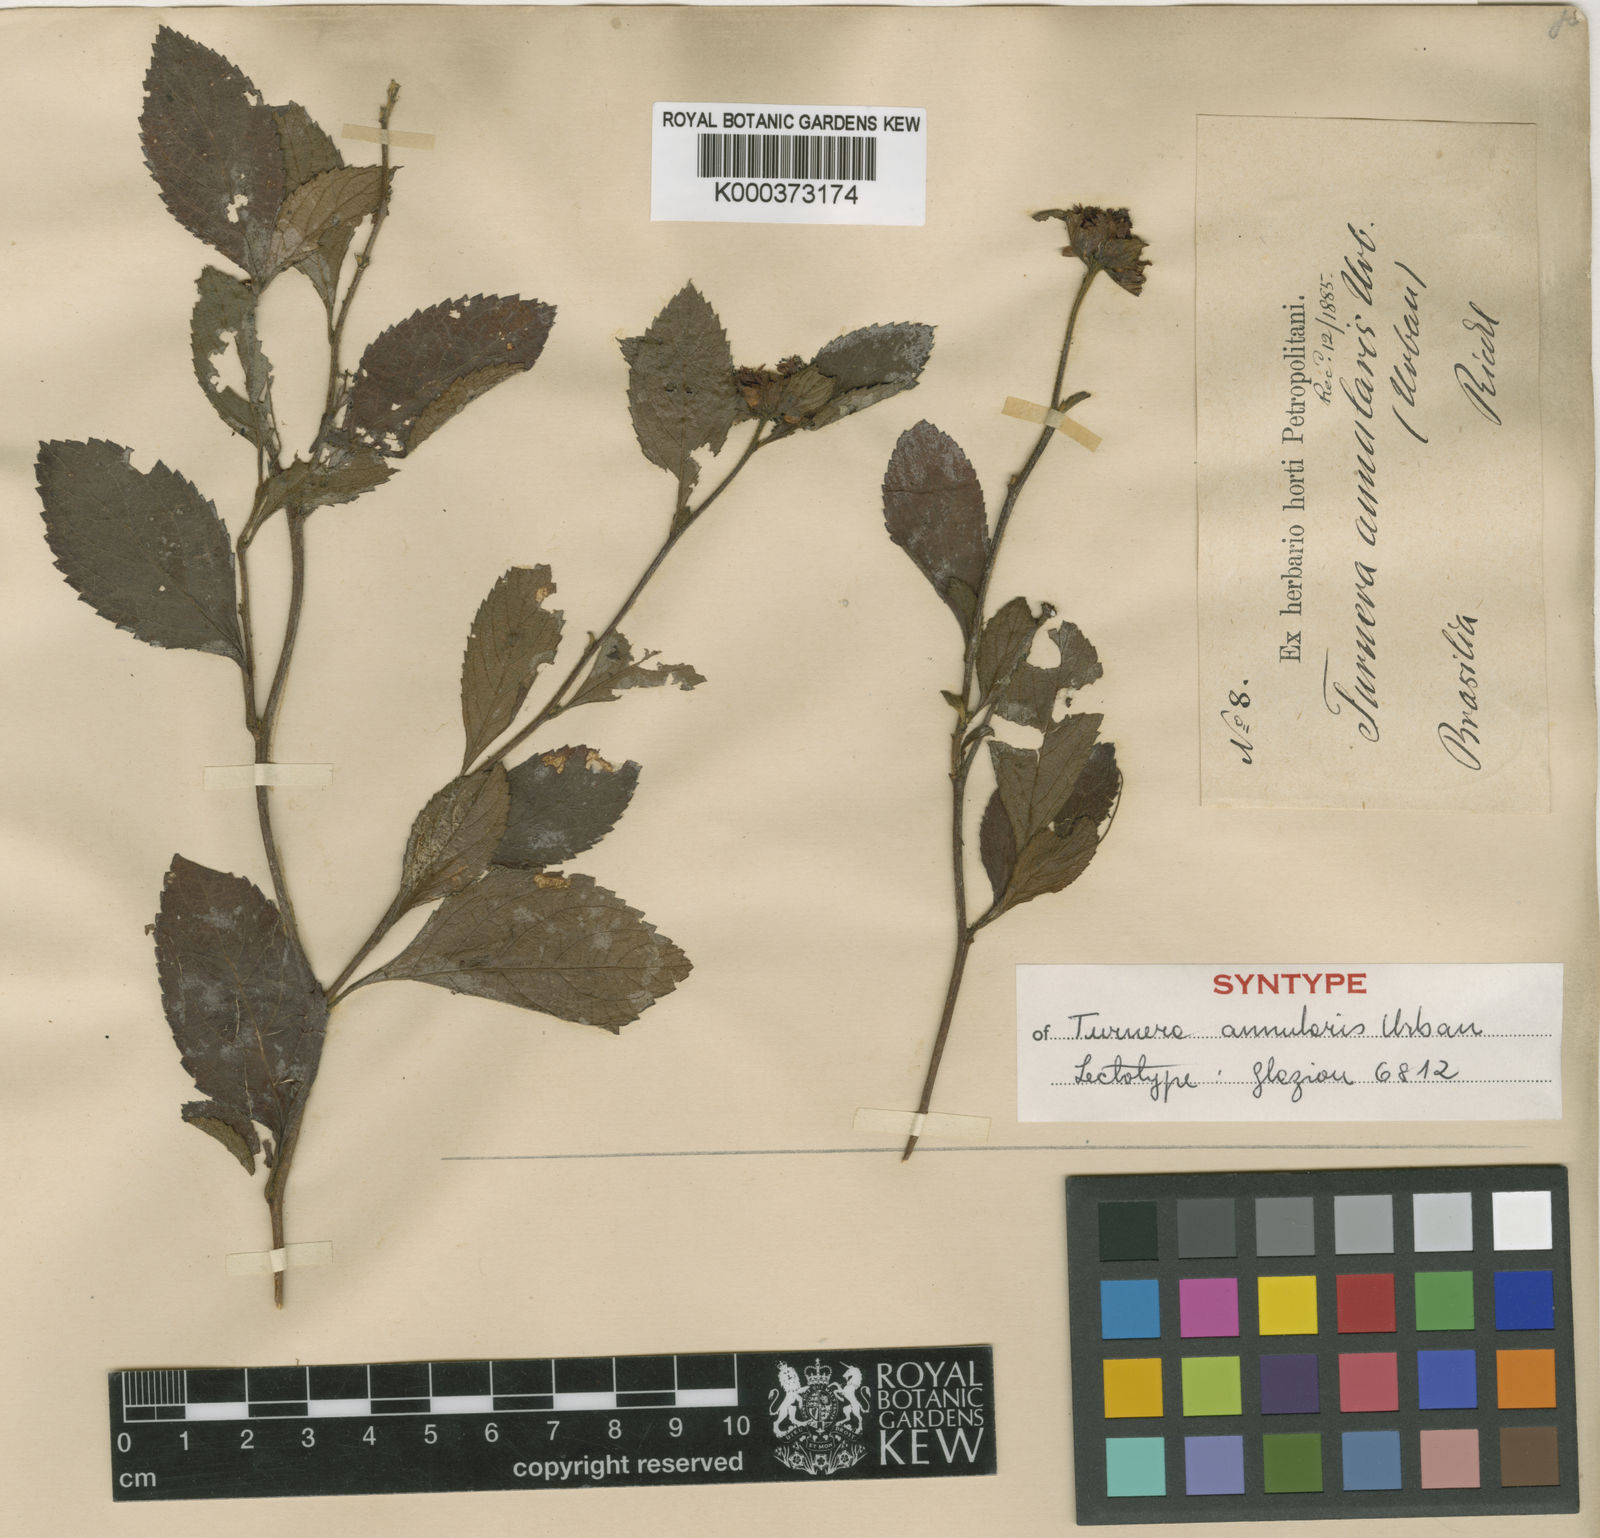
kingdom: Plantae
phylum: Tracheophyta
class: Magnoliopsida
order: Malpighiales
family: Turneraceae
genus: Oxossia
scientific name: Oxossia annularis
